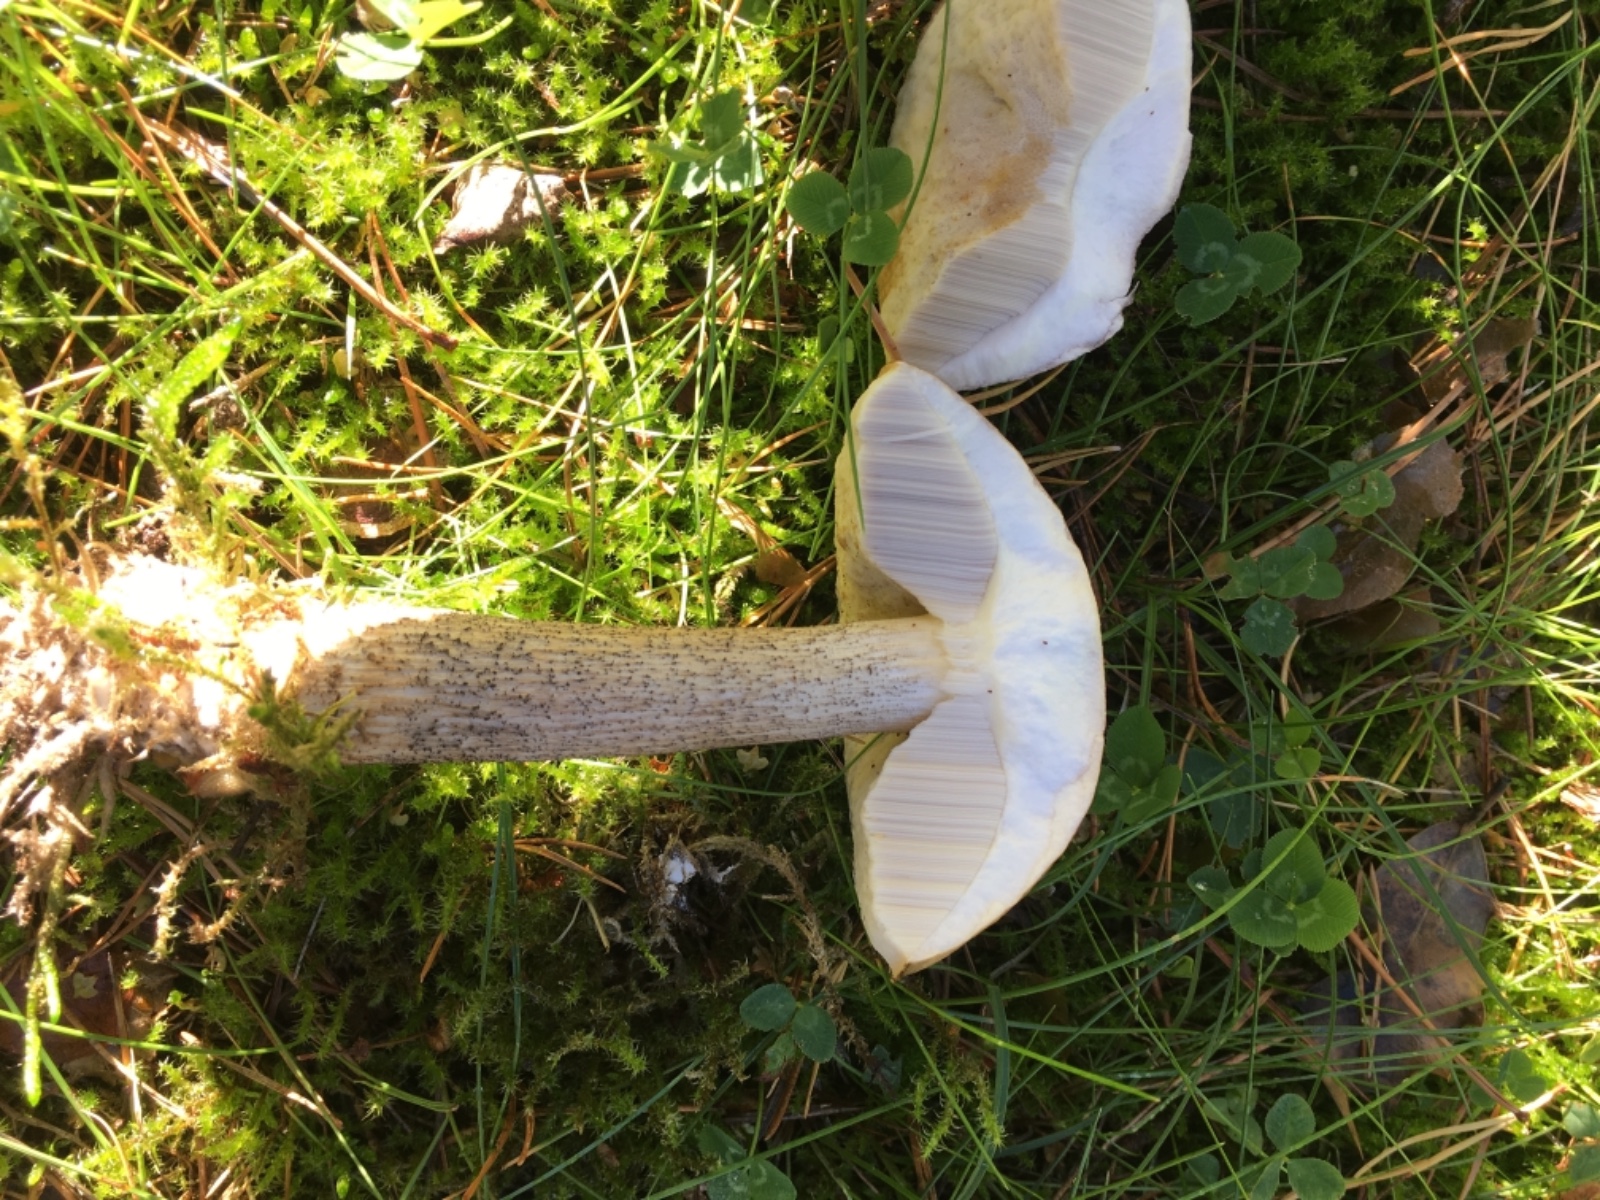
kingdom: Fungi
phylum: Basidiomycota
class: Agaricomycetes
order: Boletales
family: Boletaceae
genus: Leccinum
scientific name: Leccinum scabrum
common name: brun skælrørhat
